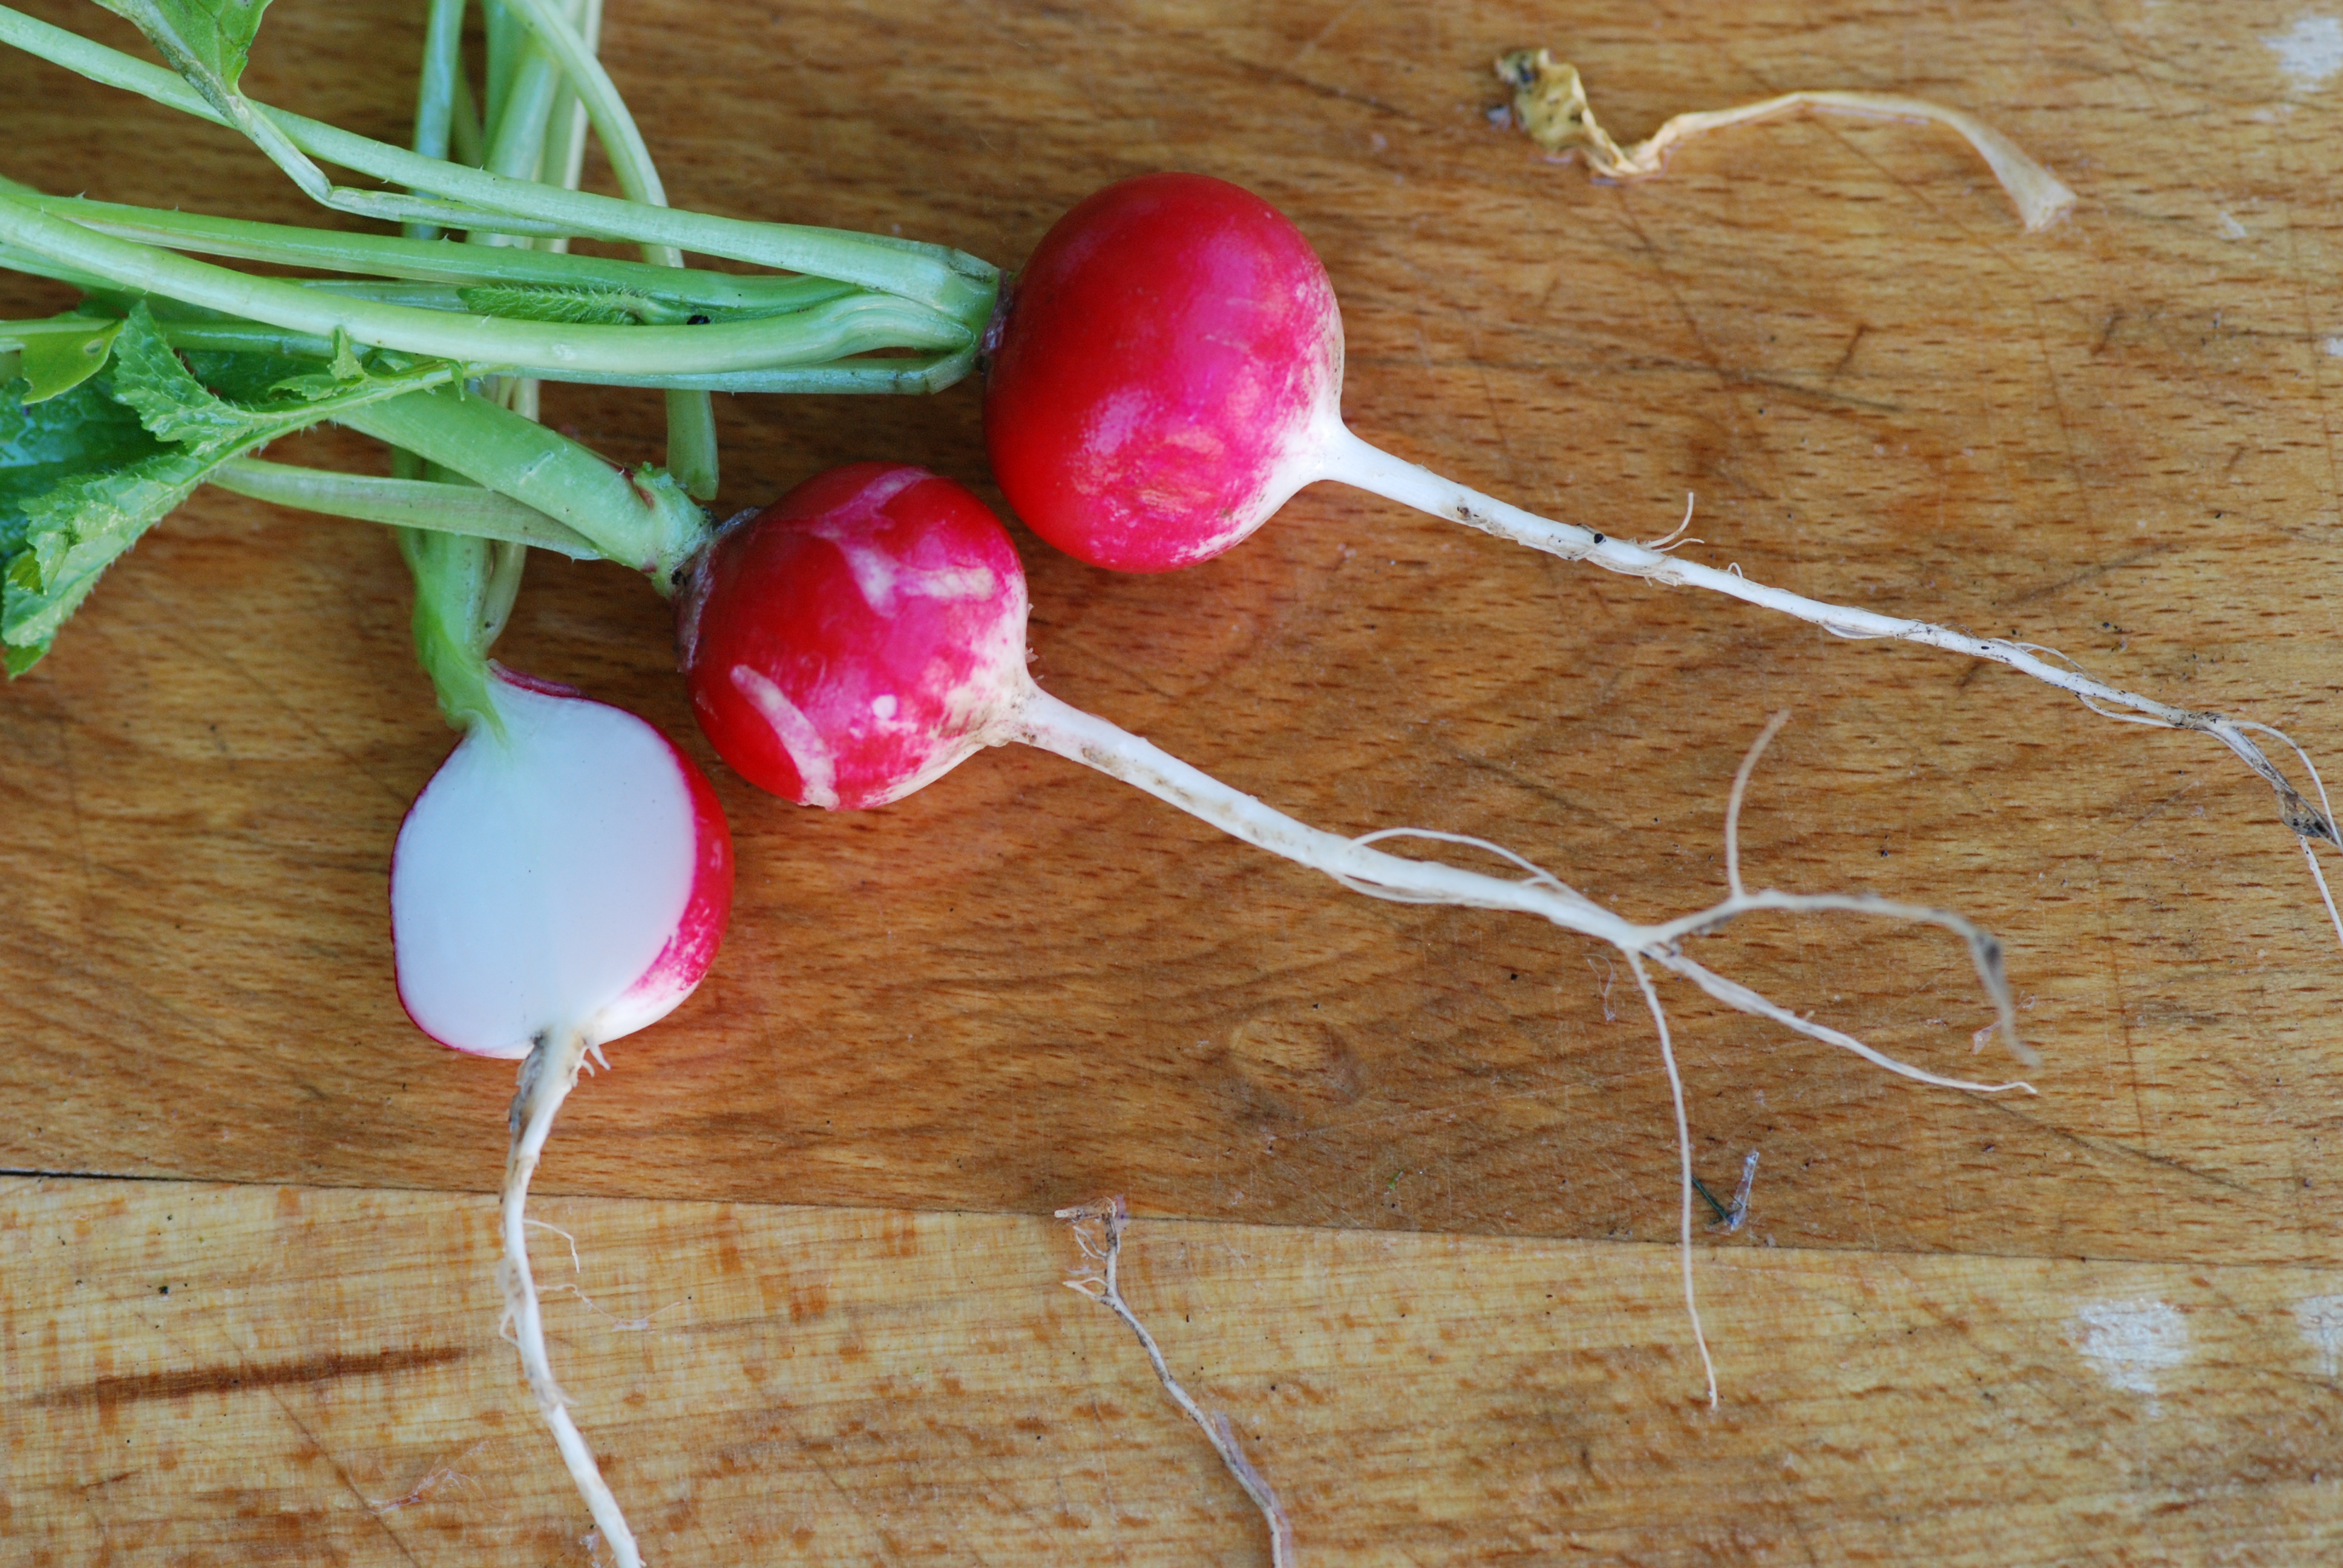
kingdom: Plantae
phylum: Tracheophyta
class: Magnoliopsida
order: Brassicales
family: Brassicaceae
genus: Raphanus
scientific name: Raphanus sativus
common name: Cultivated radish
